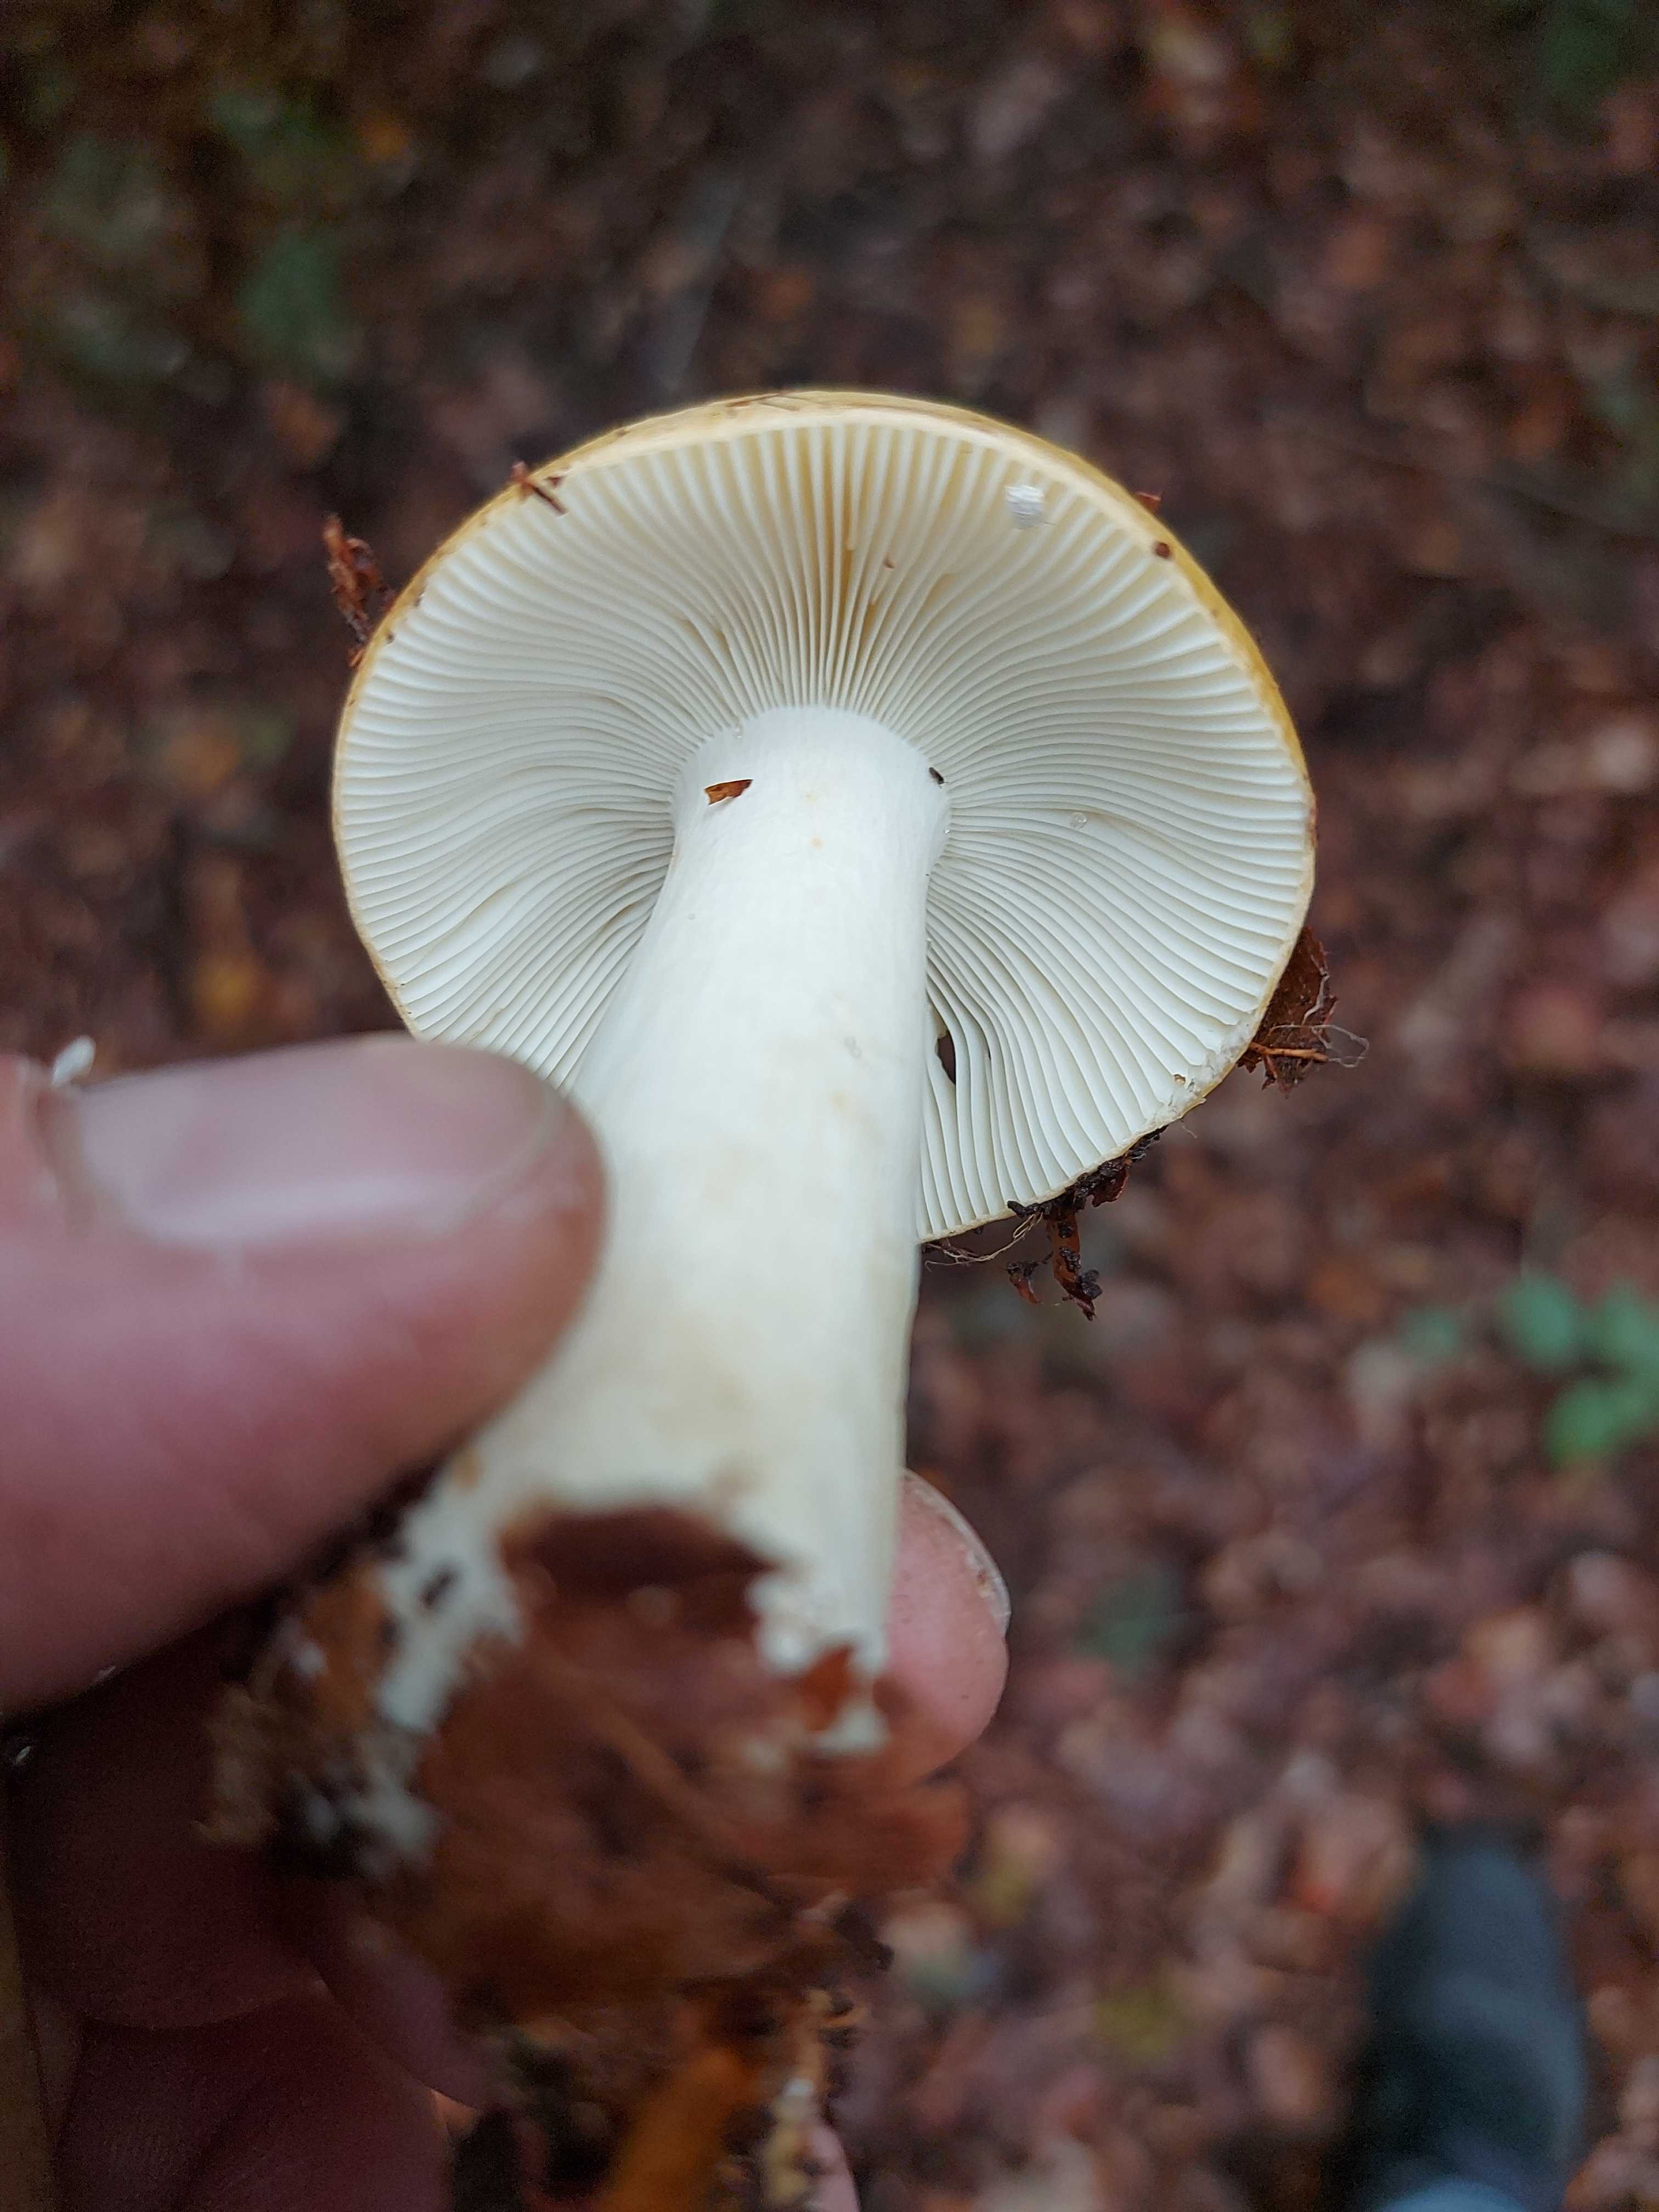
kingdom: Fungi
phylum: Basidiomycota
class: Agaricomycetes
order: Russulales
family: Russulaceae
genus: Russula
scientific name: Russula ochroleuca
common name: okkergul skørhat
